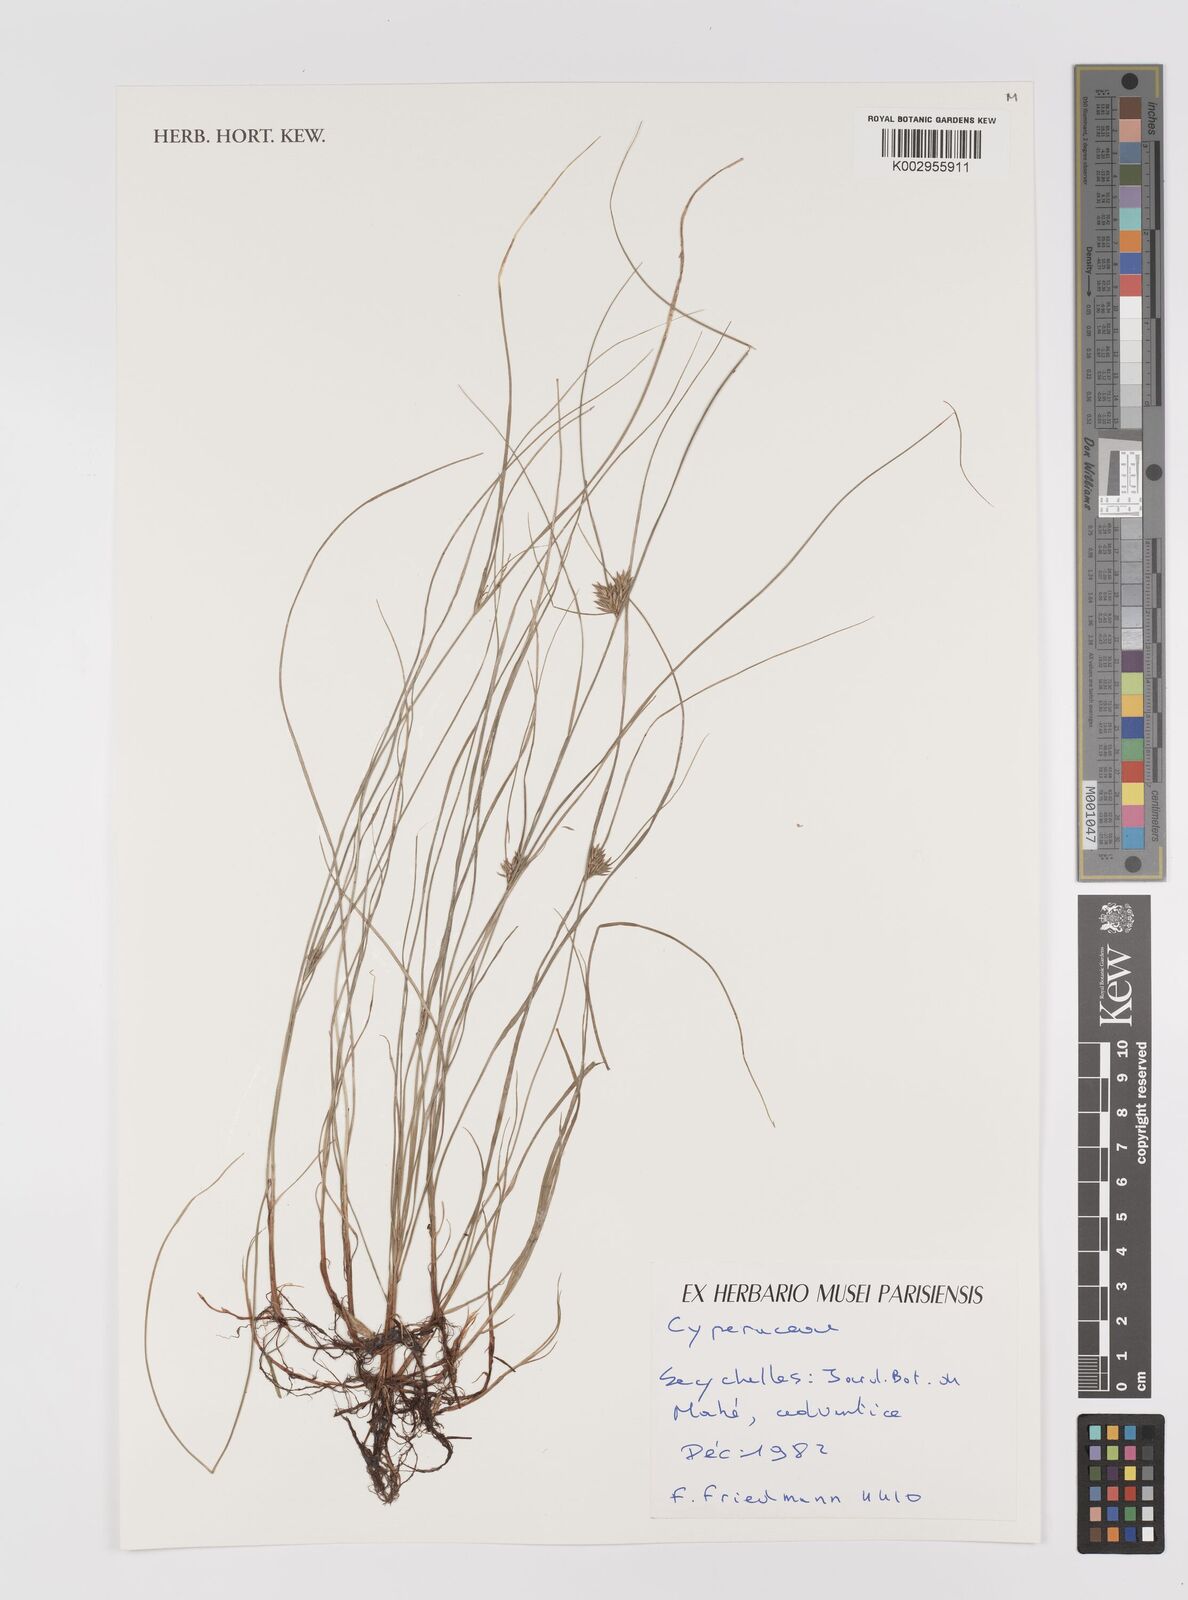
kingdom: Plantae
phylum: Tracheophyta
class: Liliopsida
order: Poales
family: Cyperaceae
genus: Cyperus
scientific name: Cyperus
